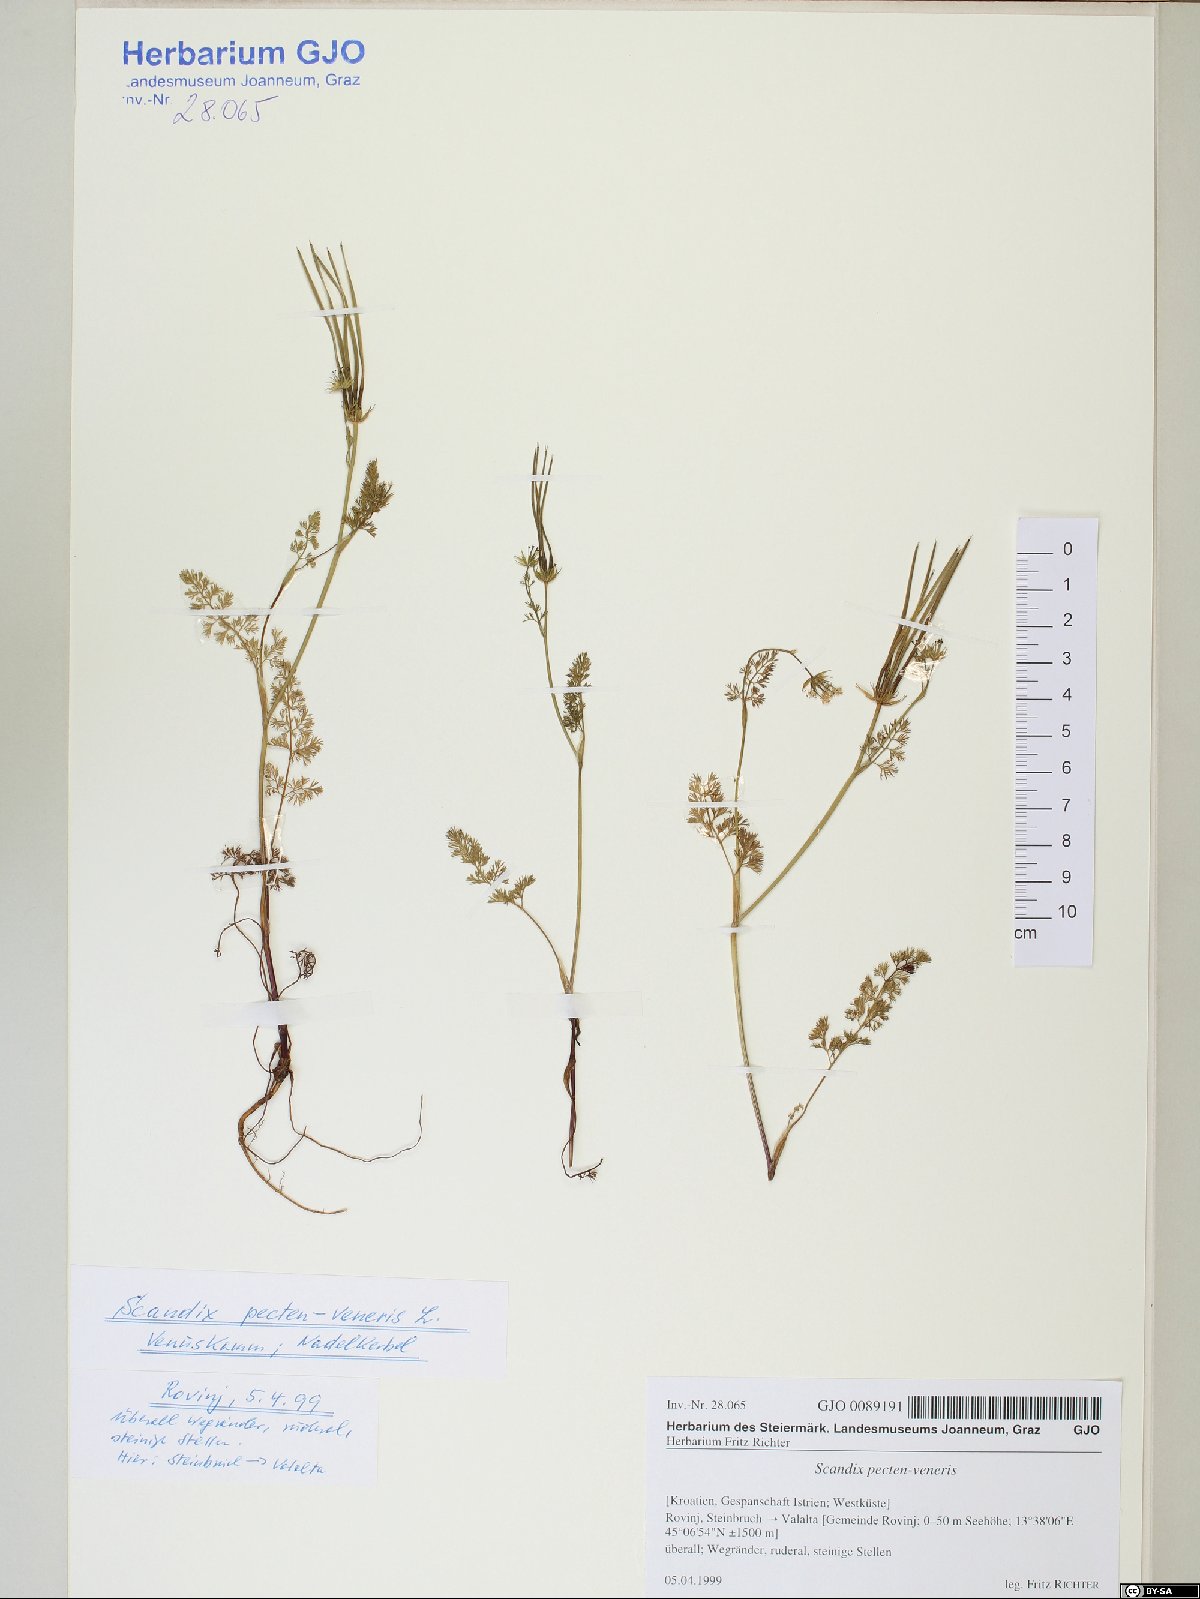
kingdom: Plantae
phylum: Tracheophyta
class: Magnoliopsida
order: Apiales
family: Apiaceae
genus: Scandix
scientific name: Scandix pecten-veneris
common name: Shepherd's-needle
